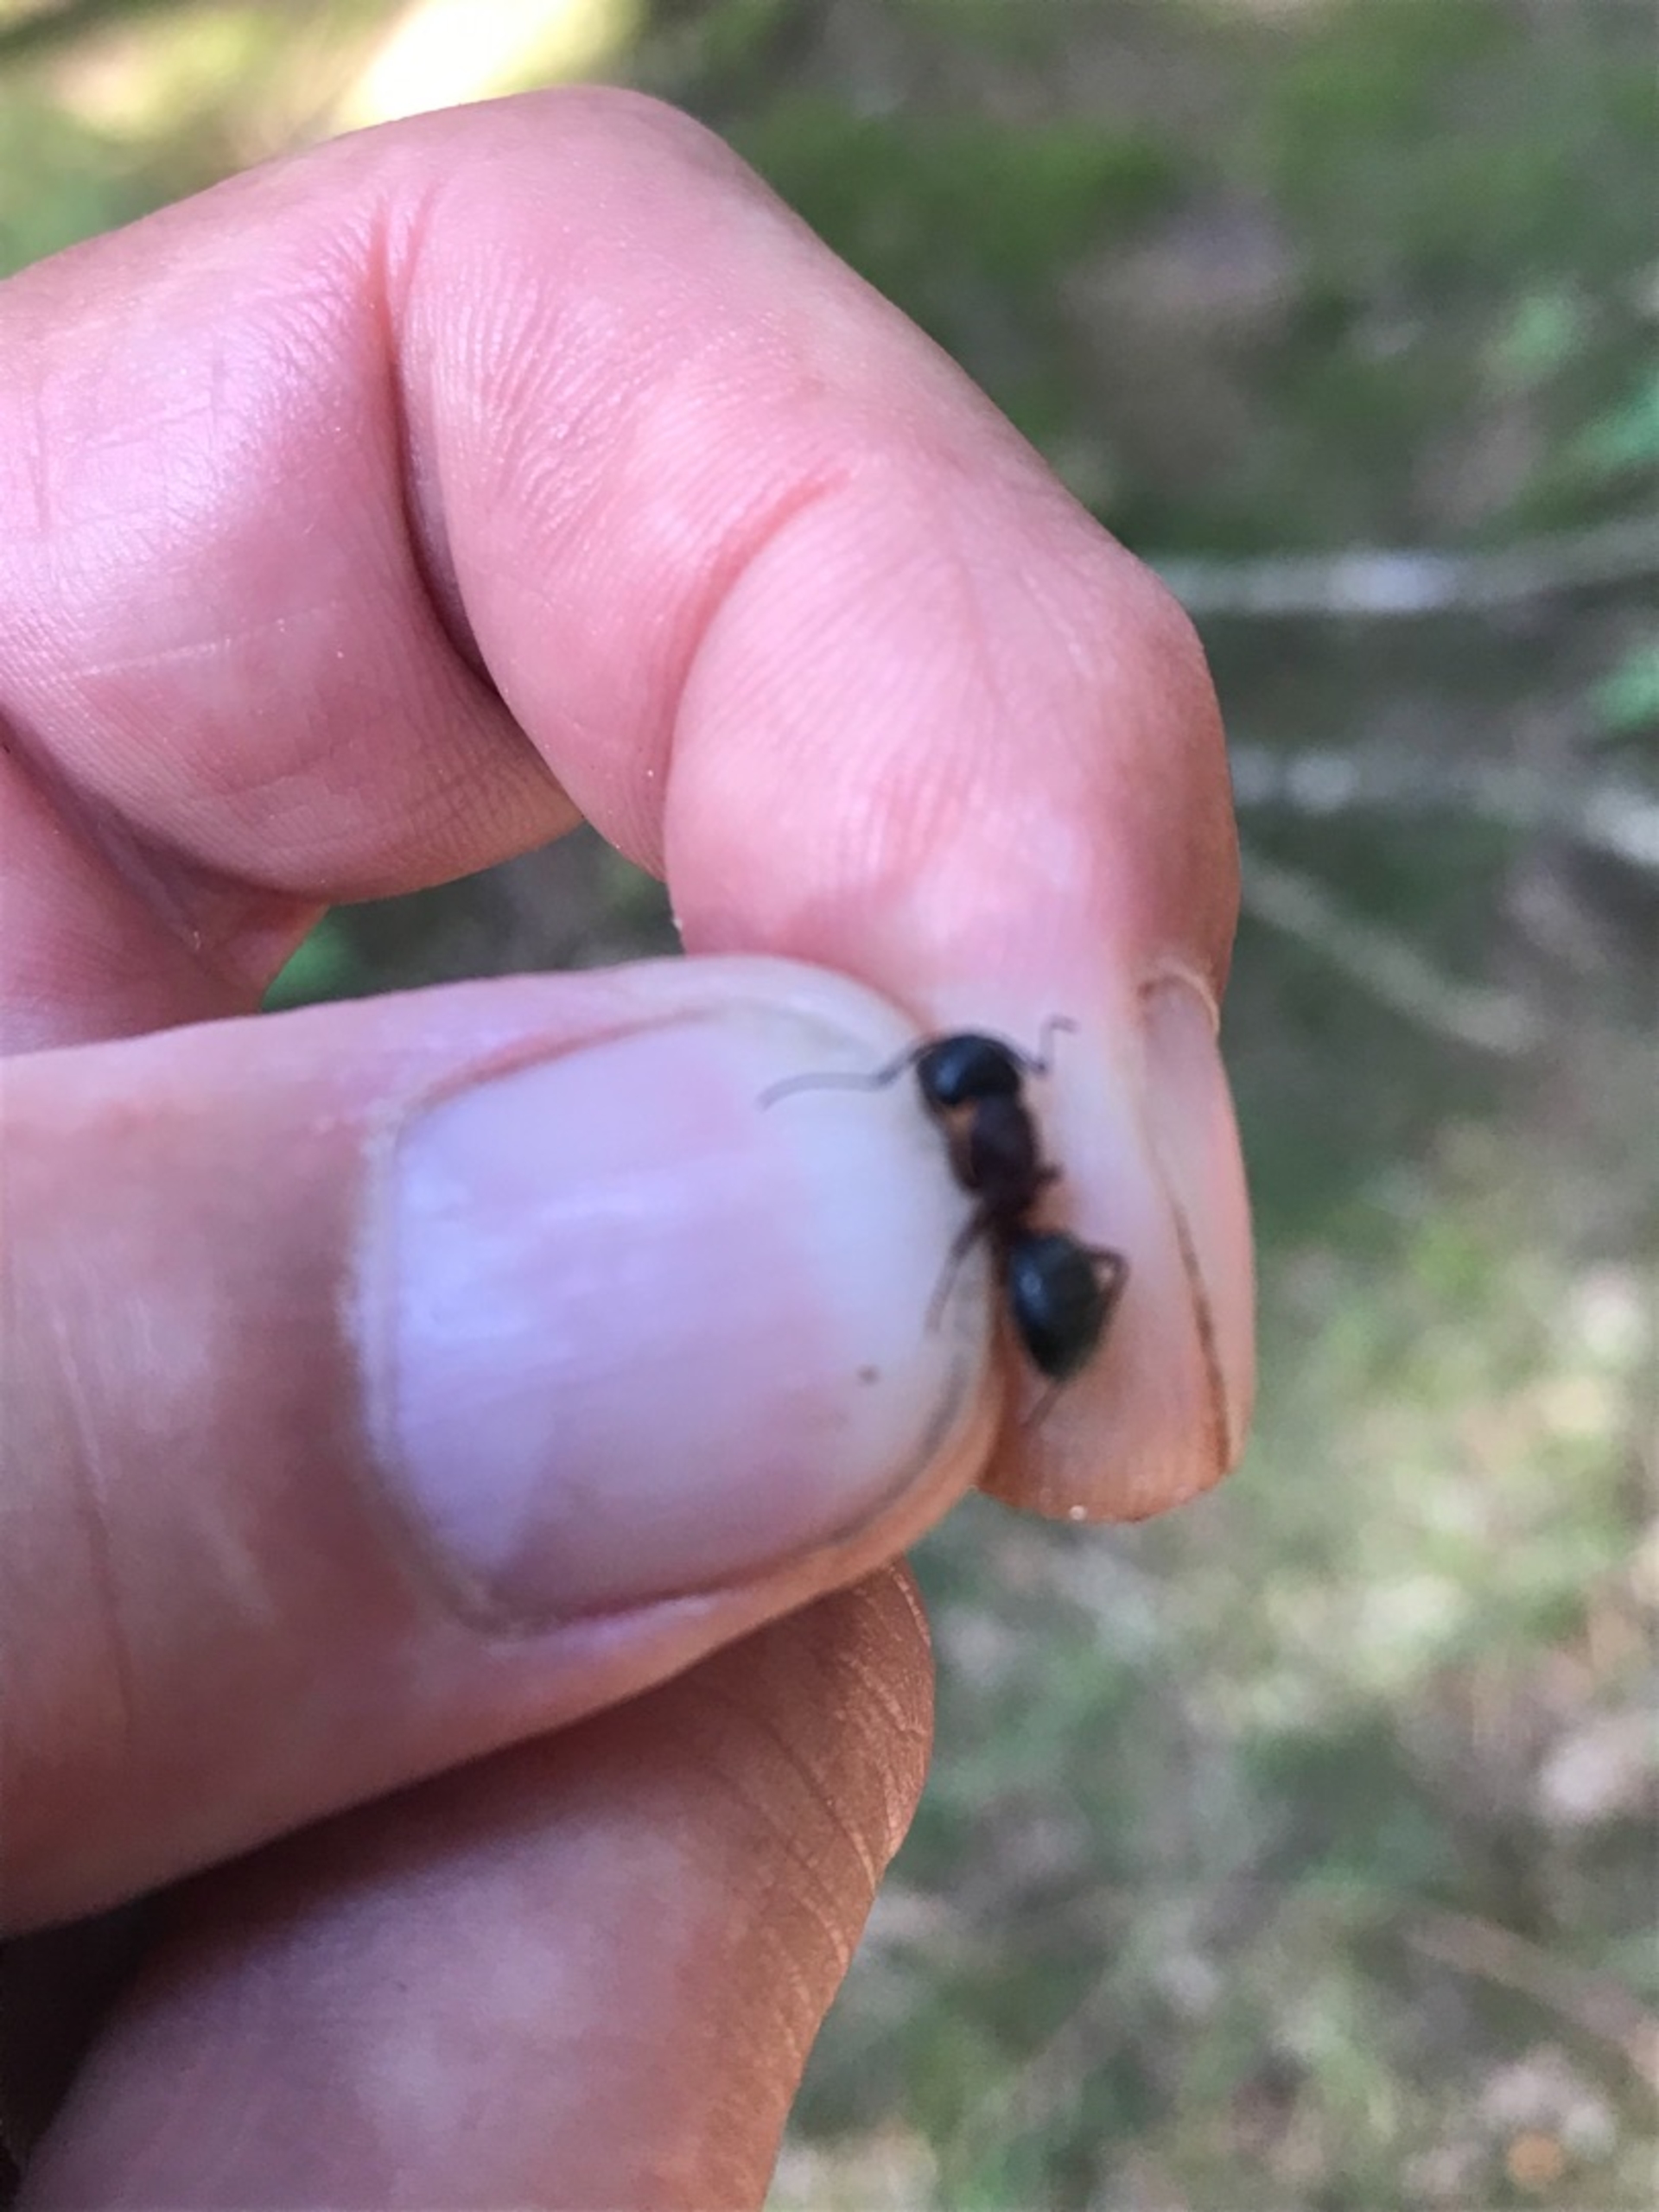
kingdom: Animalia
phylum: Arthropoda
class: Insecta
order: Hymenoptera
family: Formicidae
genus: Camponotus
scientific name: Camponotus herculeanus
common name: Herkulesmyre
